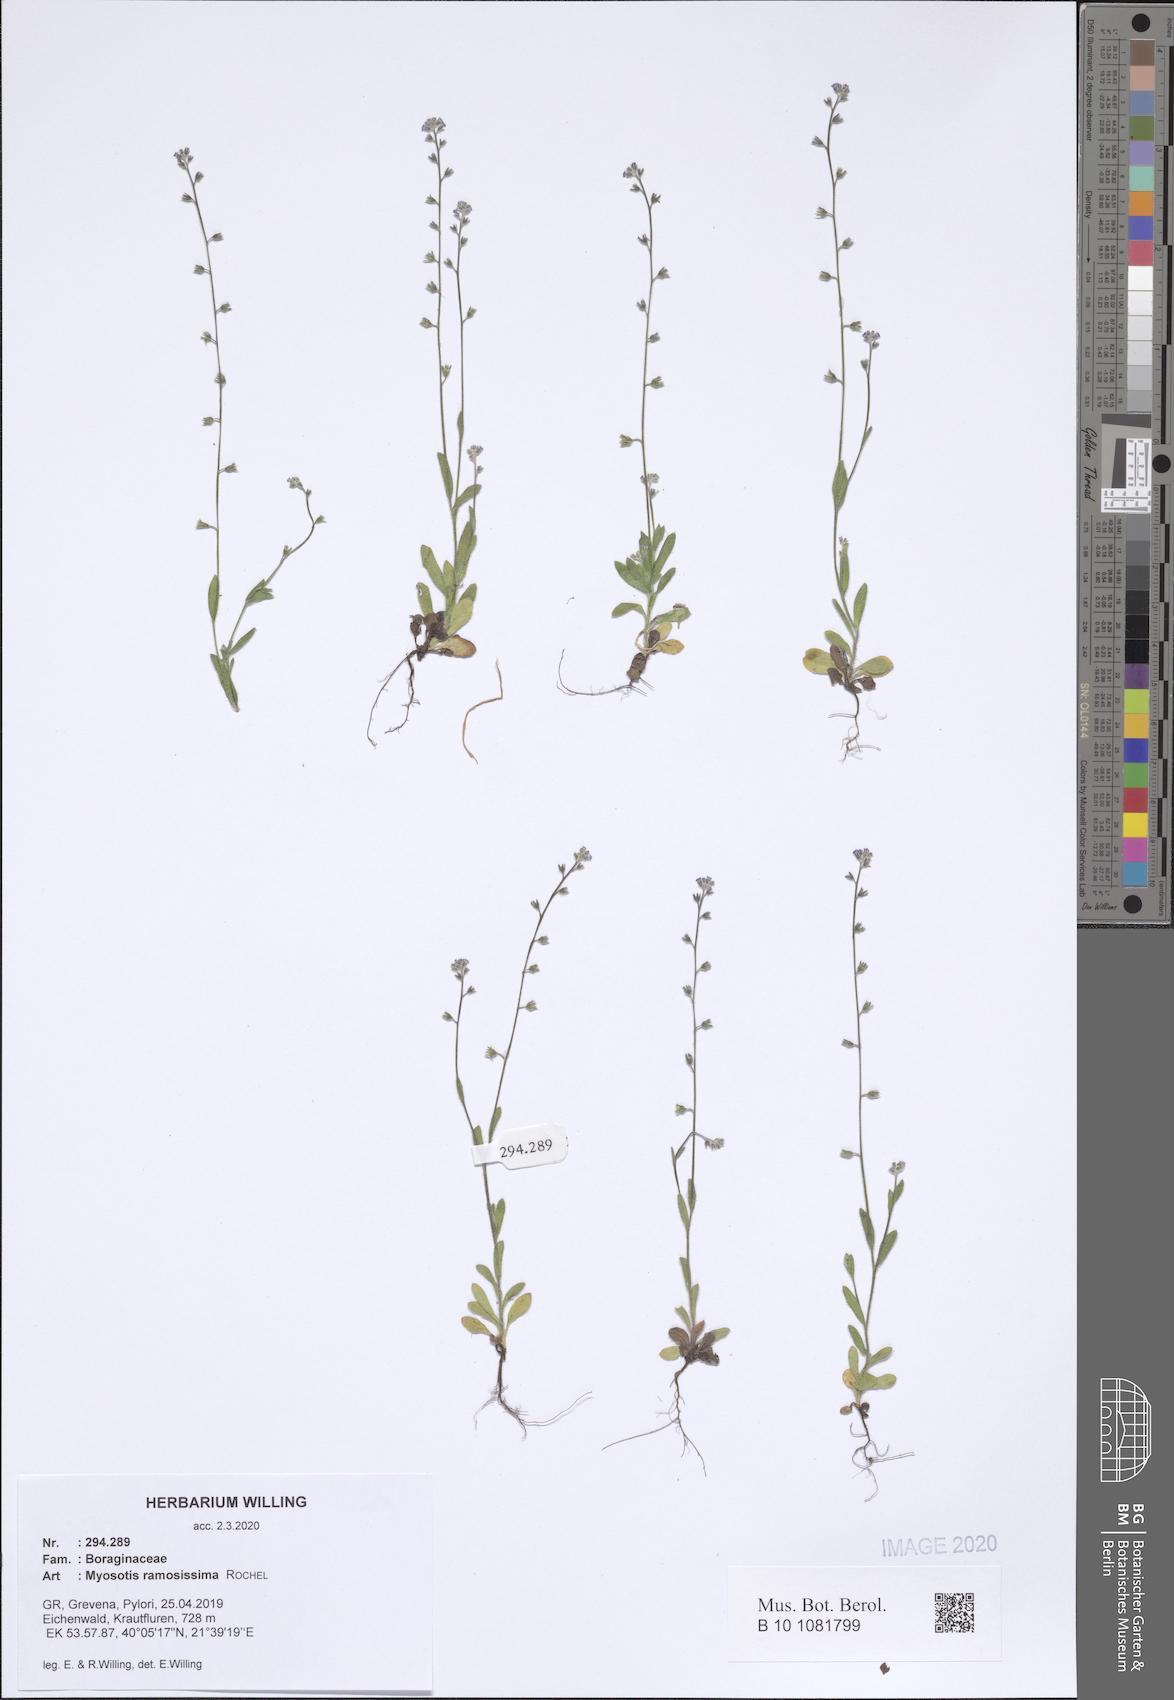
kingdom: Plantae
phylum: Tracheophyta
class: Magnoliopsida
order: Boraginales
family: Boraginaceae
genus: Myosotis
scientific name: Myosotis ramosissima
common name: Early forget-me-not
